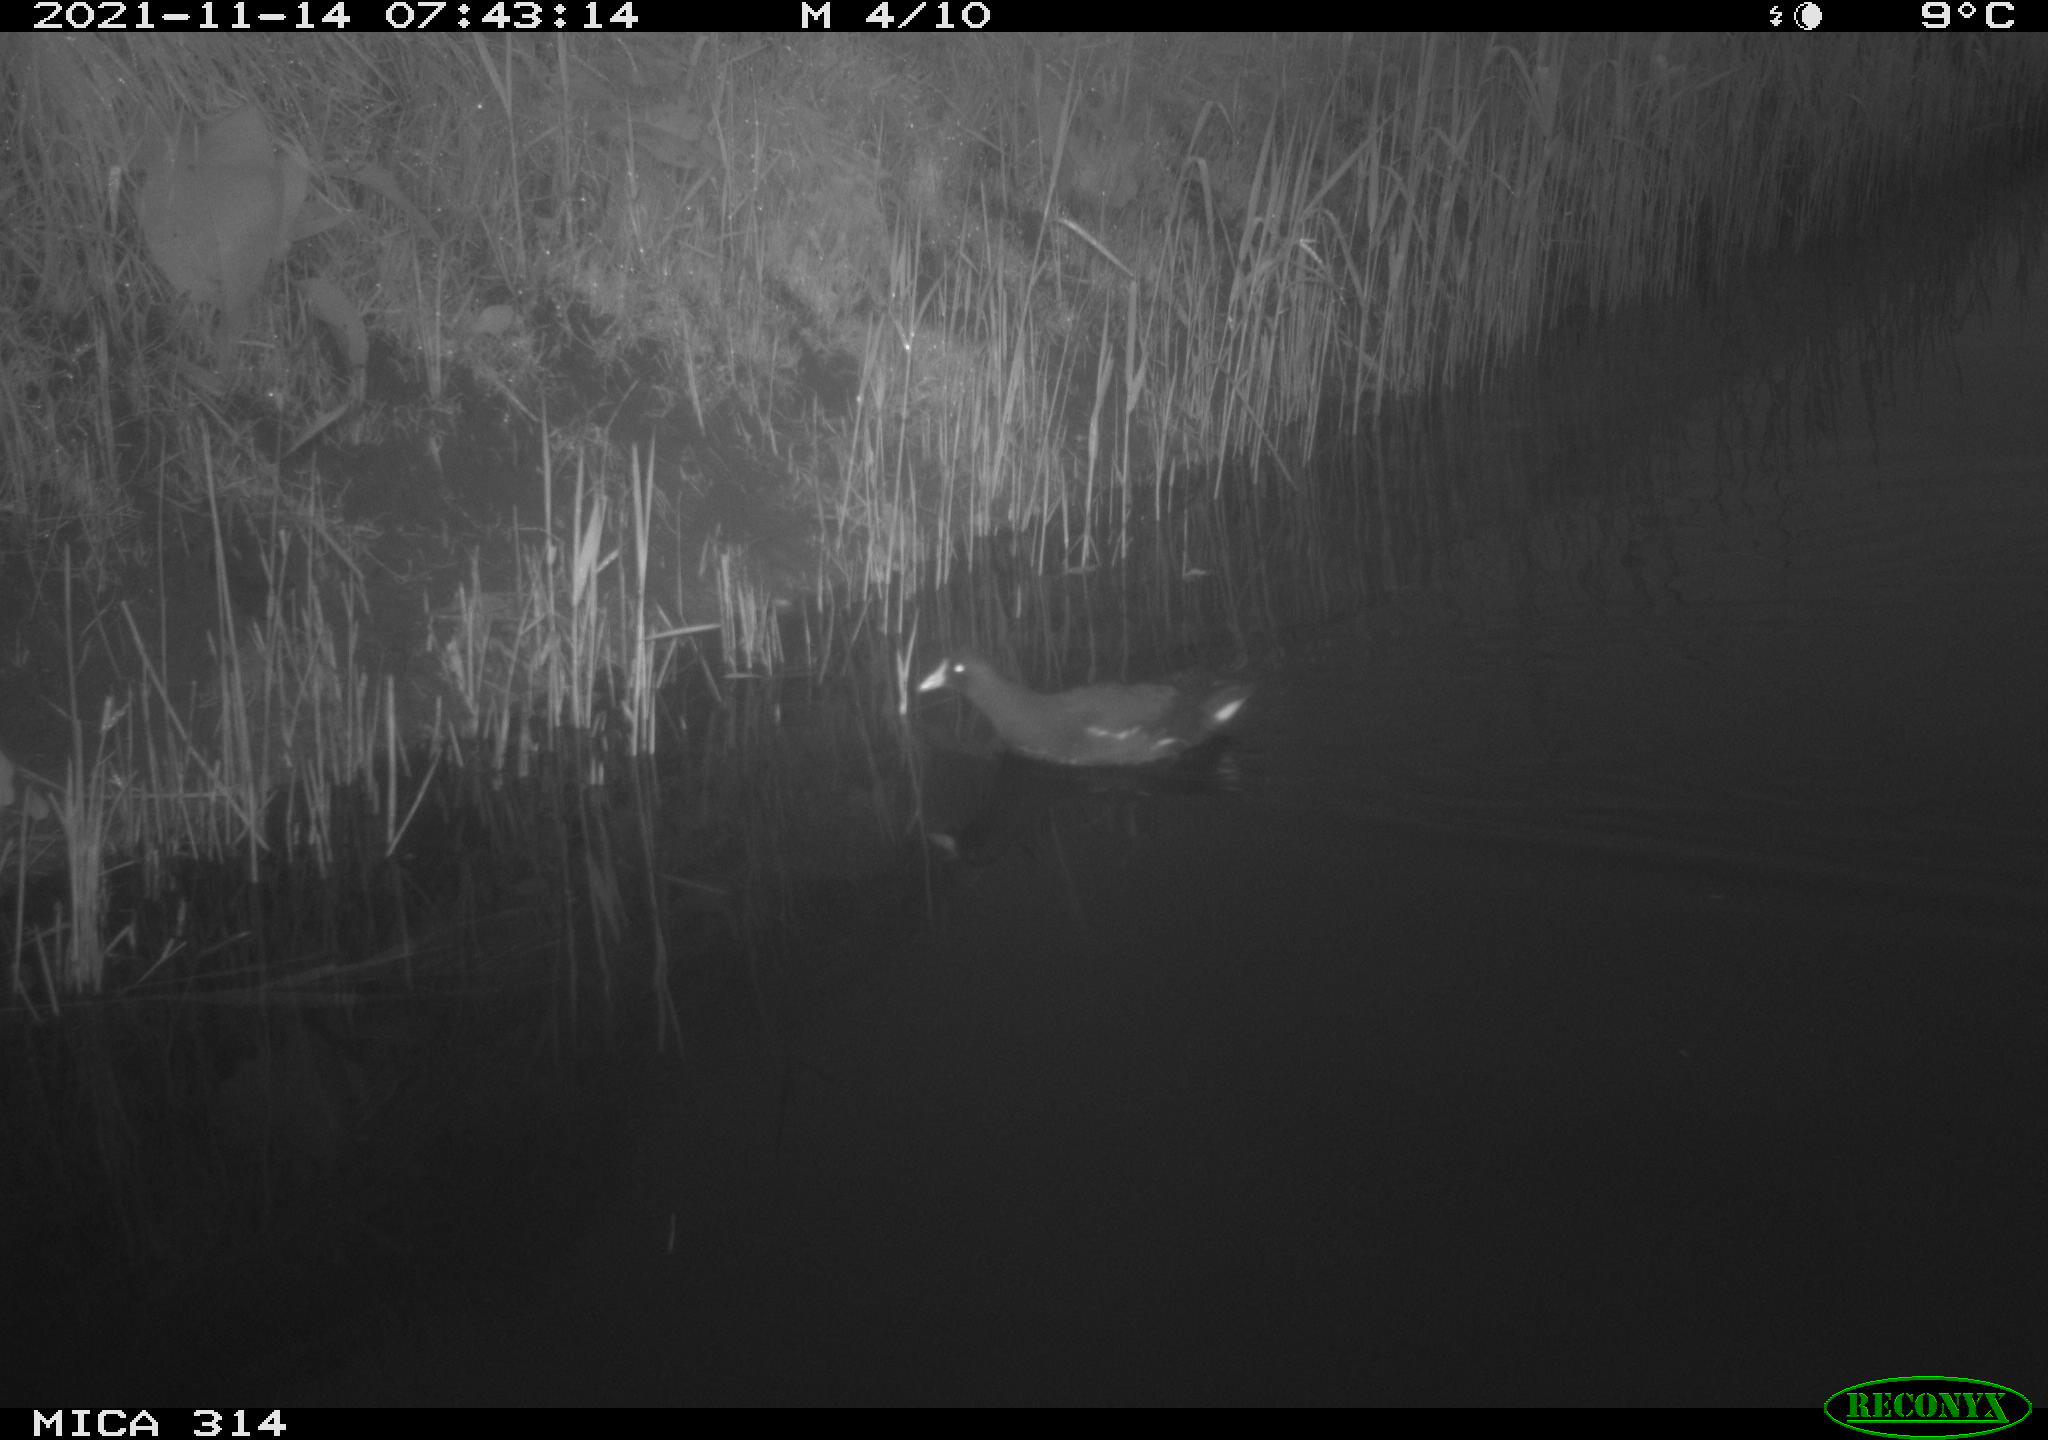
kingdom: Animalia
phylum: Chordata
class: Aves
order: Gruiformes
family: Rallidae
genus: Gallinula
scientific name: Gallinula chloropus
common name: Common moorhen
